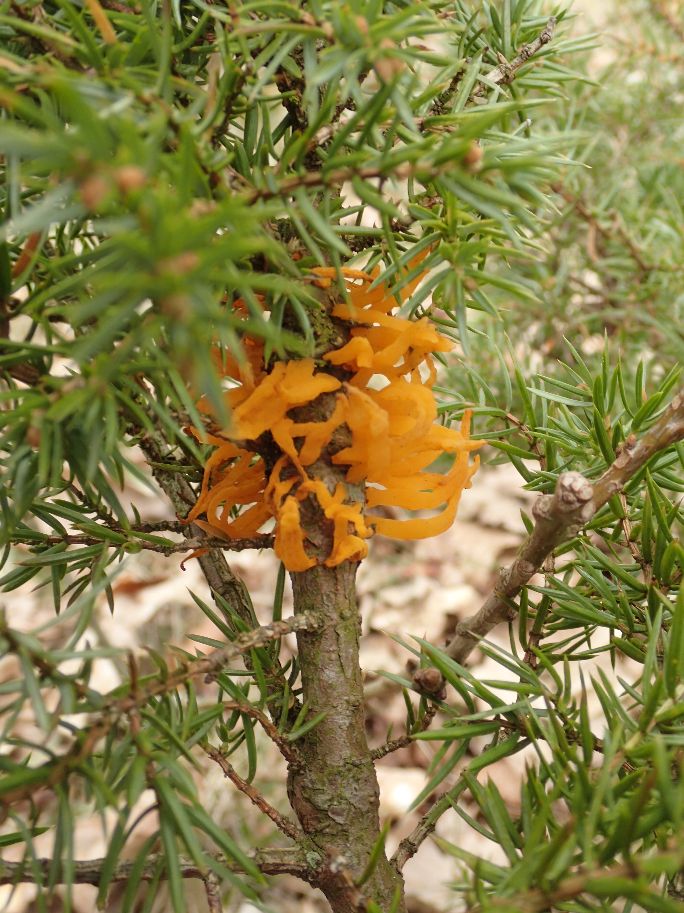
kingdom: Fungi
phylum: Basidiomycota
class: Pucciniomycetes
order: Pucciniales
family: Gymnosporangiaceae
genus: Gymnosporangium
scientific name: Gymnosporangium clavariiforme
